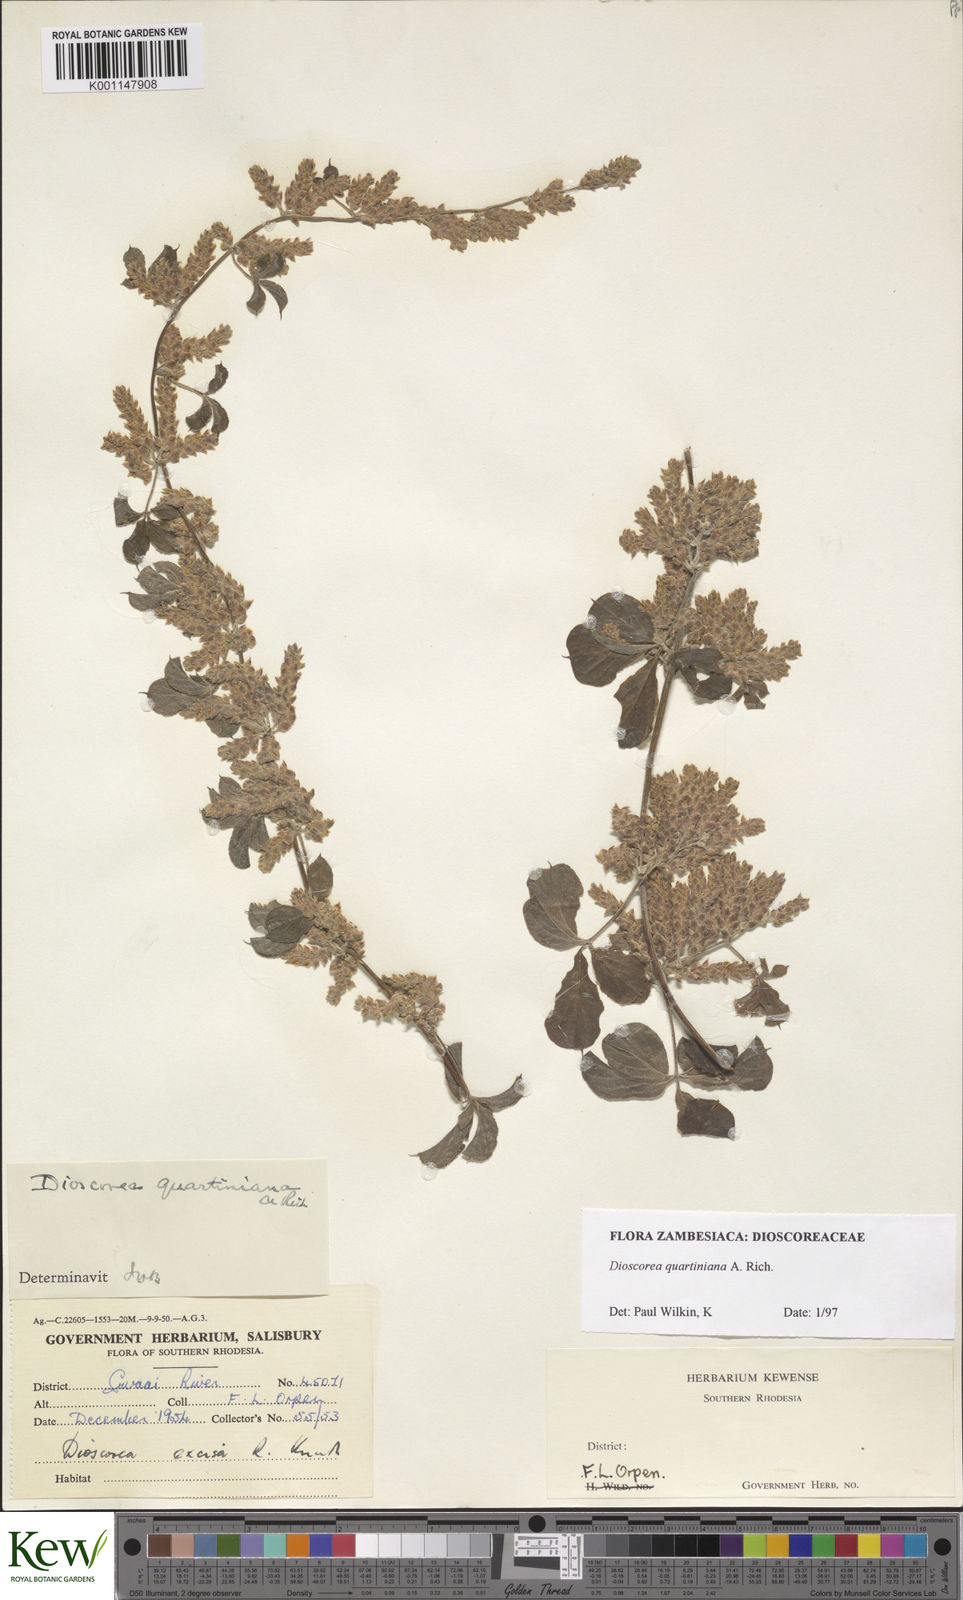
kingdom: Plantae
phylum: Tracheophyta
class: Liliopsida
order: Dioscoreales
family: Dioscoreaceae
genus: Dioscorea
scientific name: Dioscorea quartiniana
